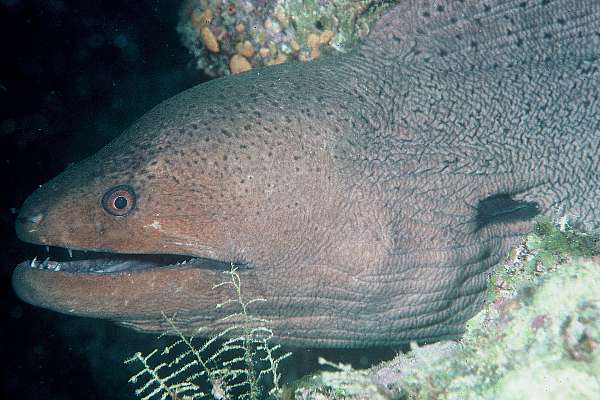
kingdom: Animalia
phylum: Chordata
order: Anguilliformes
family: Muraenidae
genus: Gymnothorax
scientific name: Gymnothorax javanicus
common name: Giant moray
